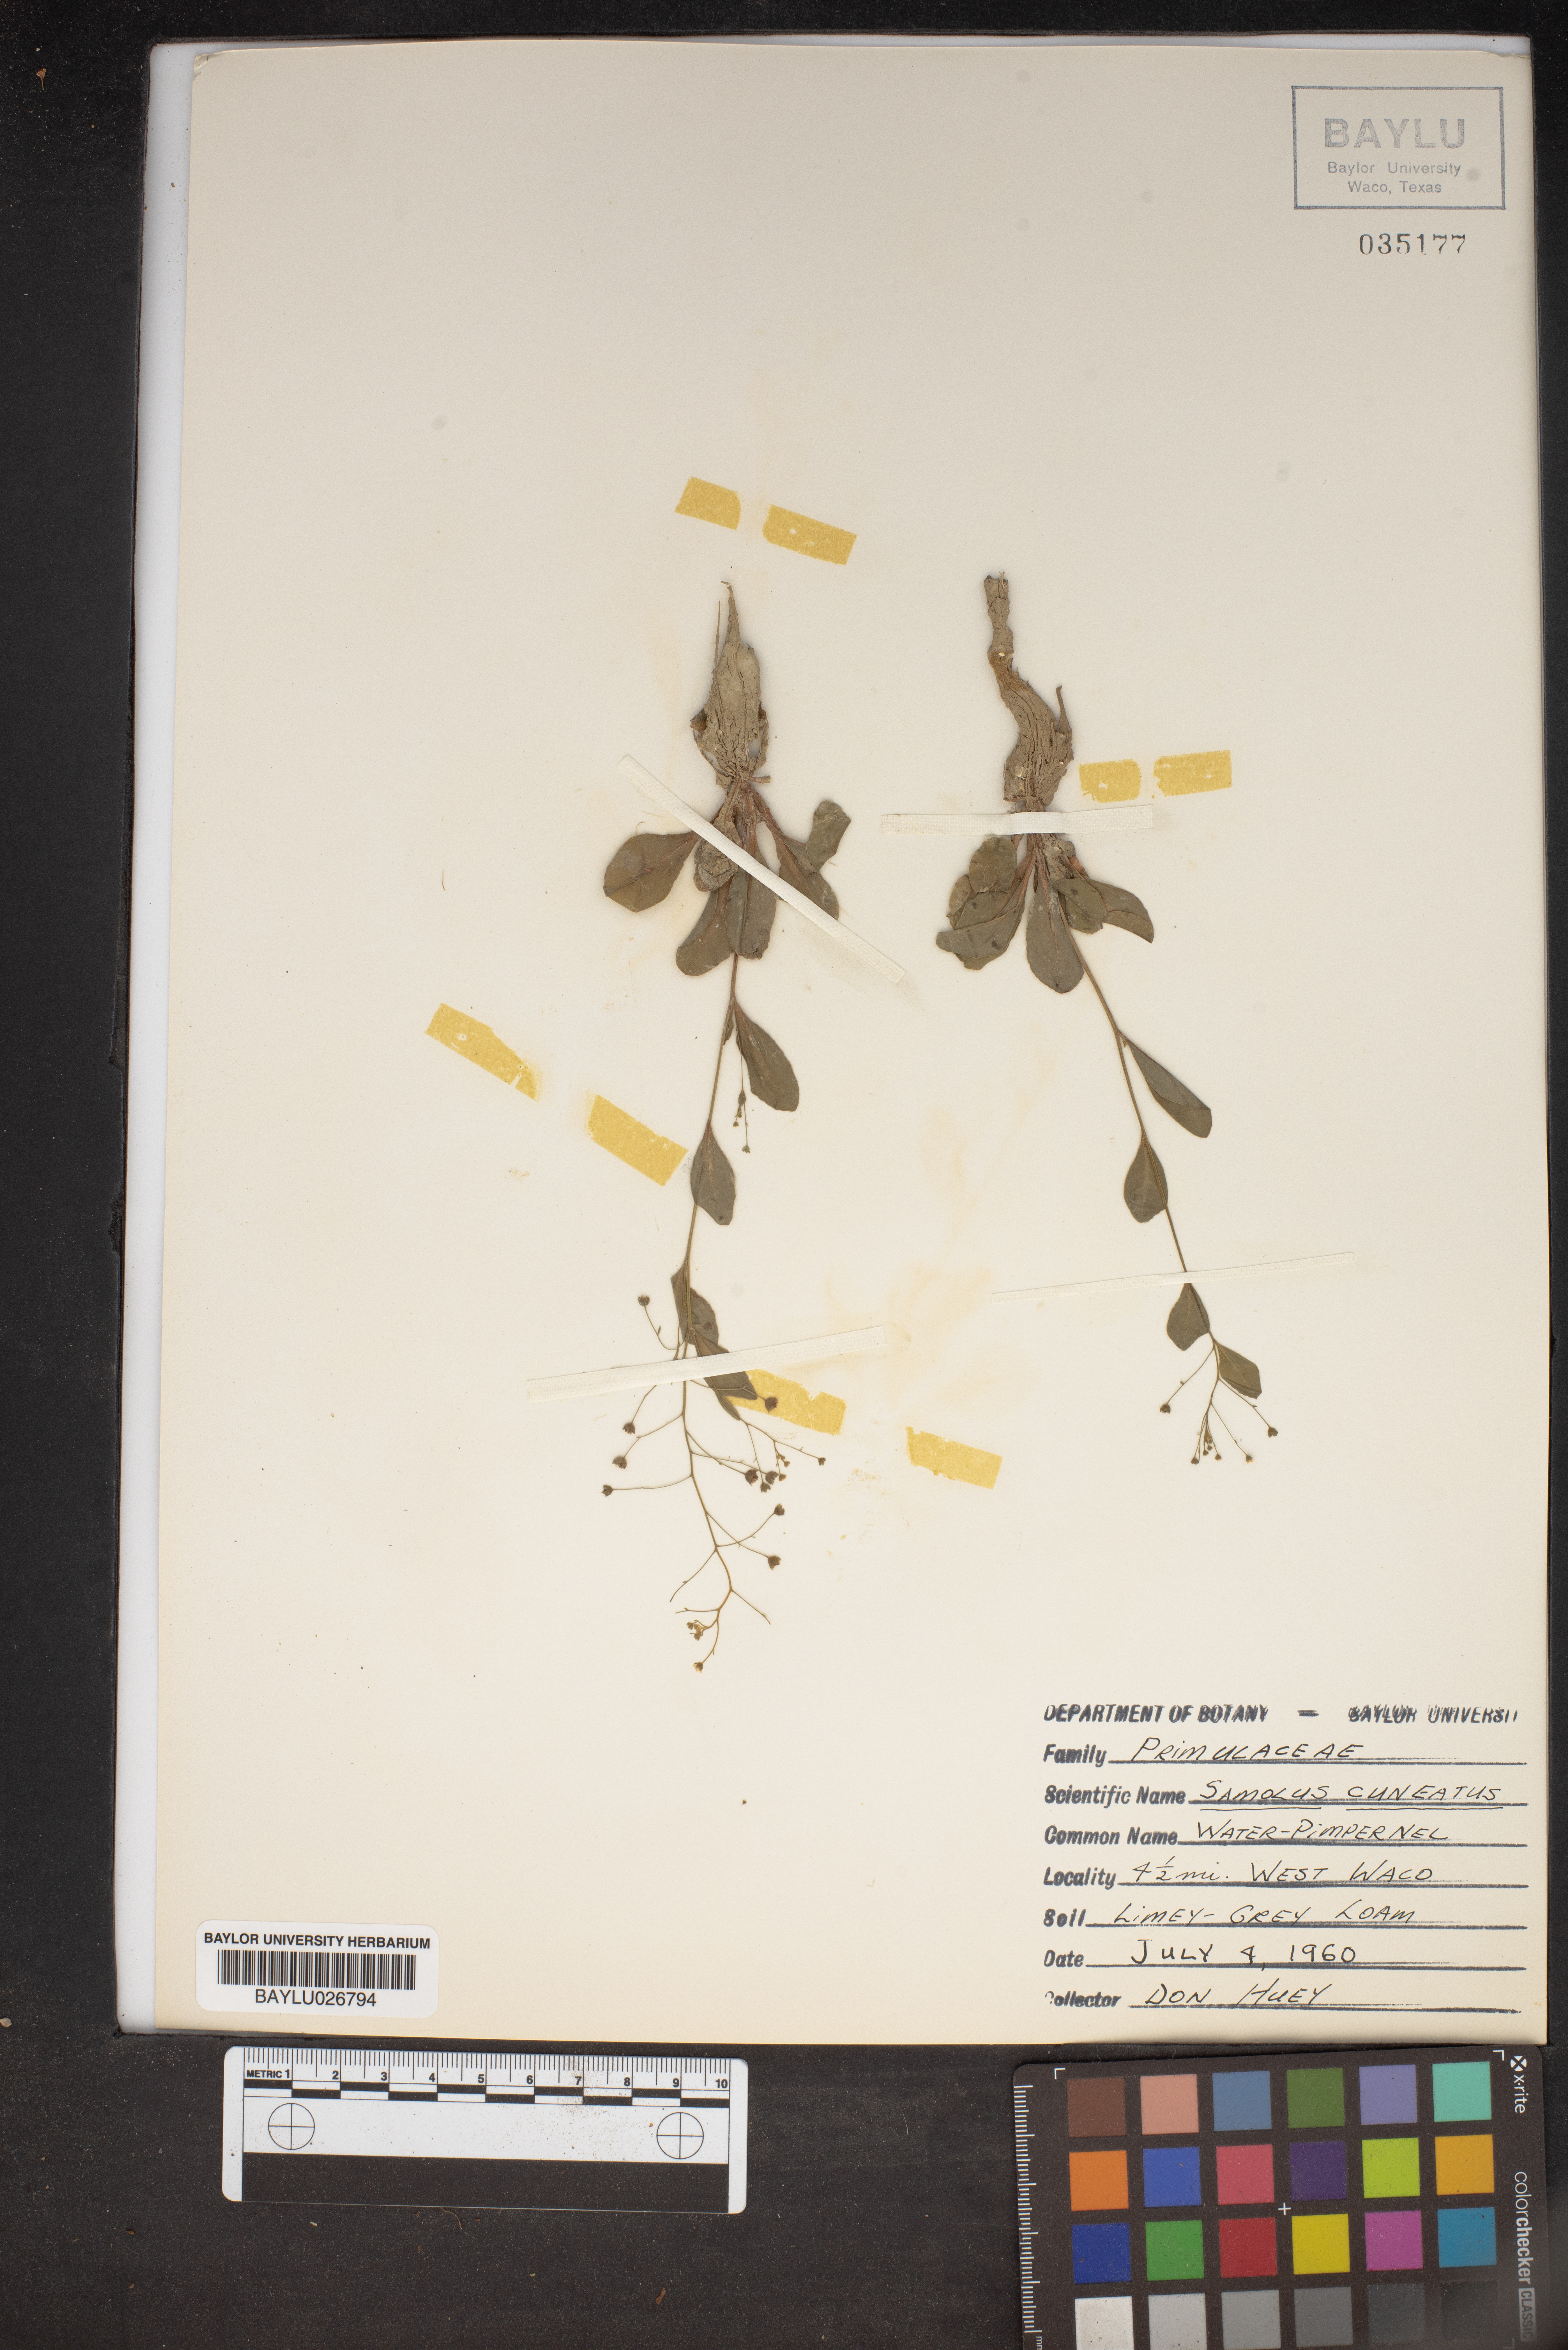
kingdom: Plantae
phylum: Tracheophyta
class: Magnoliopsida
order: Ericales
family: Primulaceae
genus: Samolus
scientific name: Samolus ebracteatus
